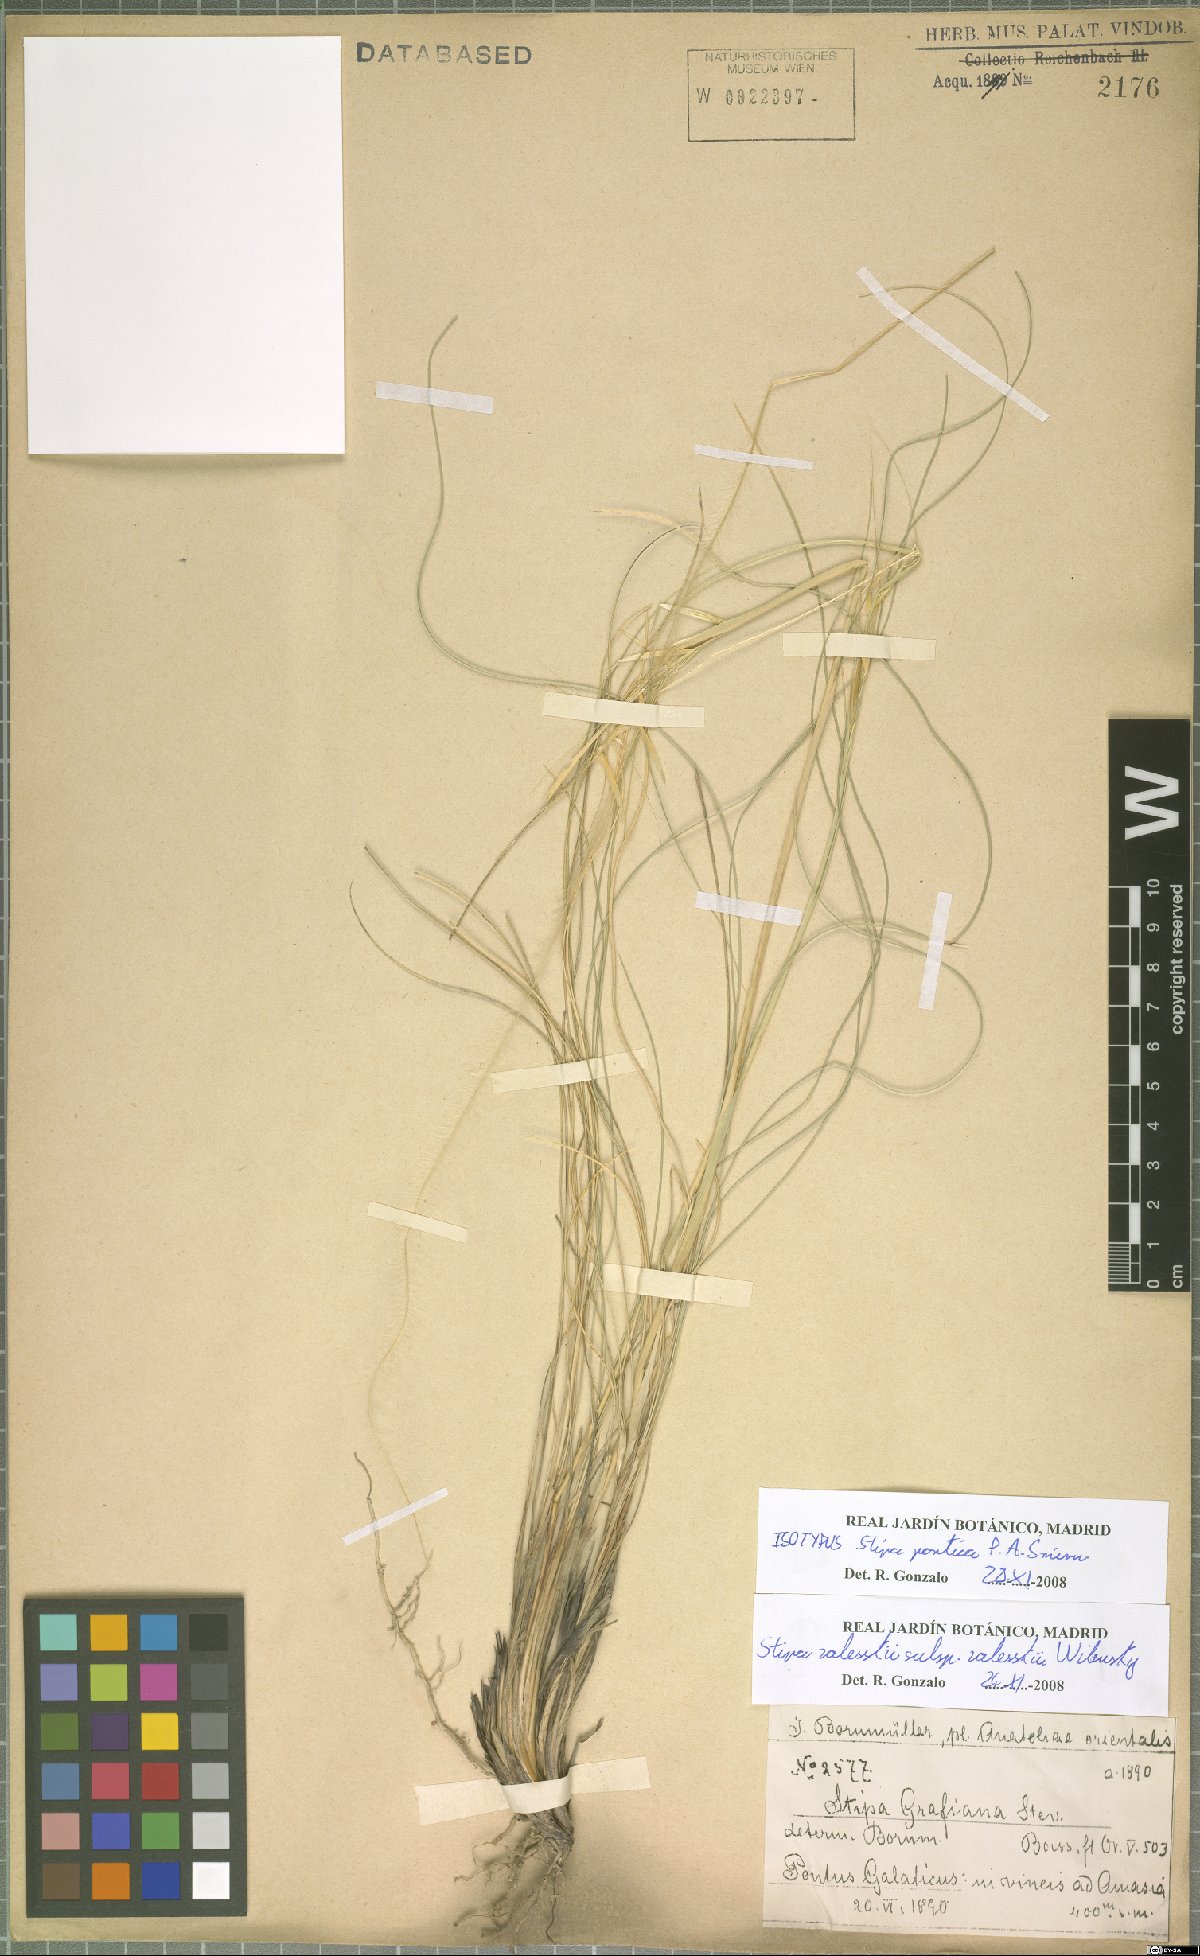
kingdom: Plantae
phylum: Tracheophyta
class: Liliopsida
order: Poales
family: Poaceae
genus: Stipa
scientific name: Stipa zalesskii
